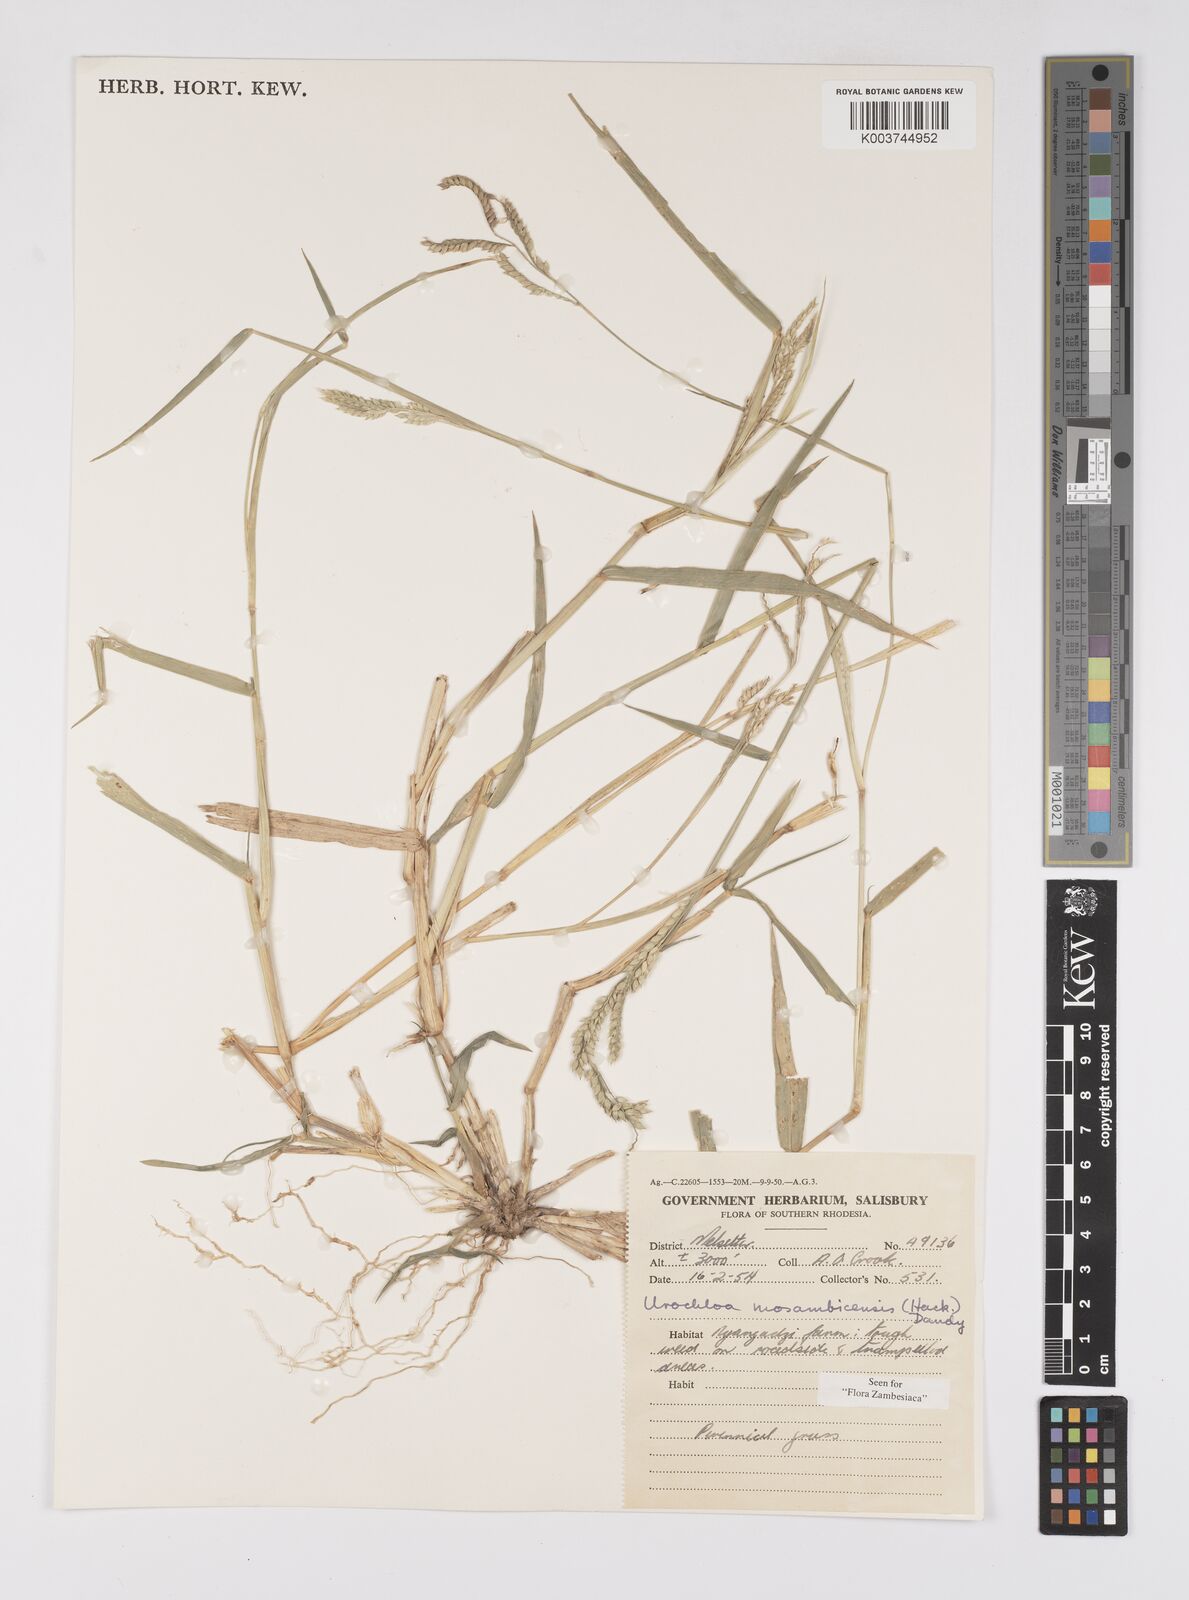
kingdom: Plantae
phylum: Tracheophyta
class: Liliopsida
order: Poales
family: Poaceae
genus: Urochloa
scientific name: Urochloa trichopus
